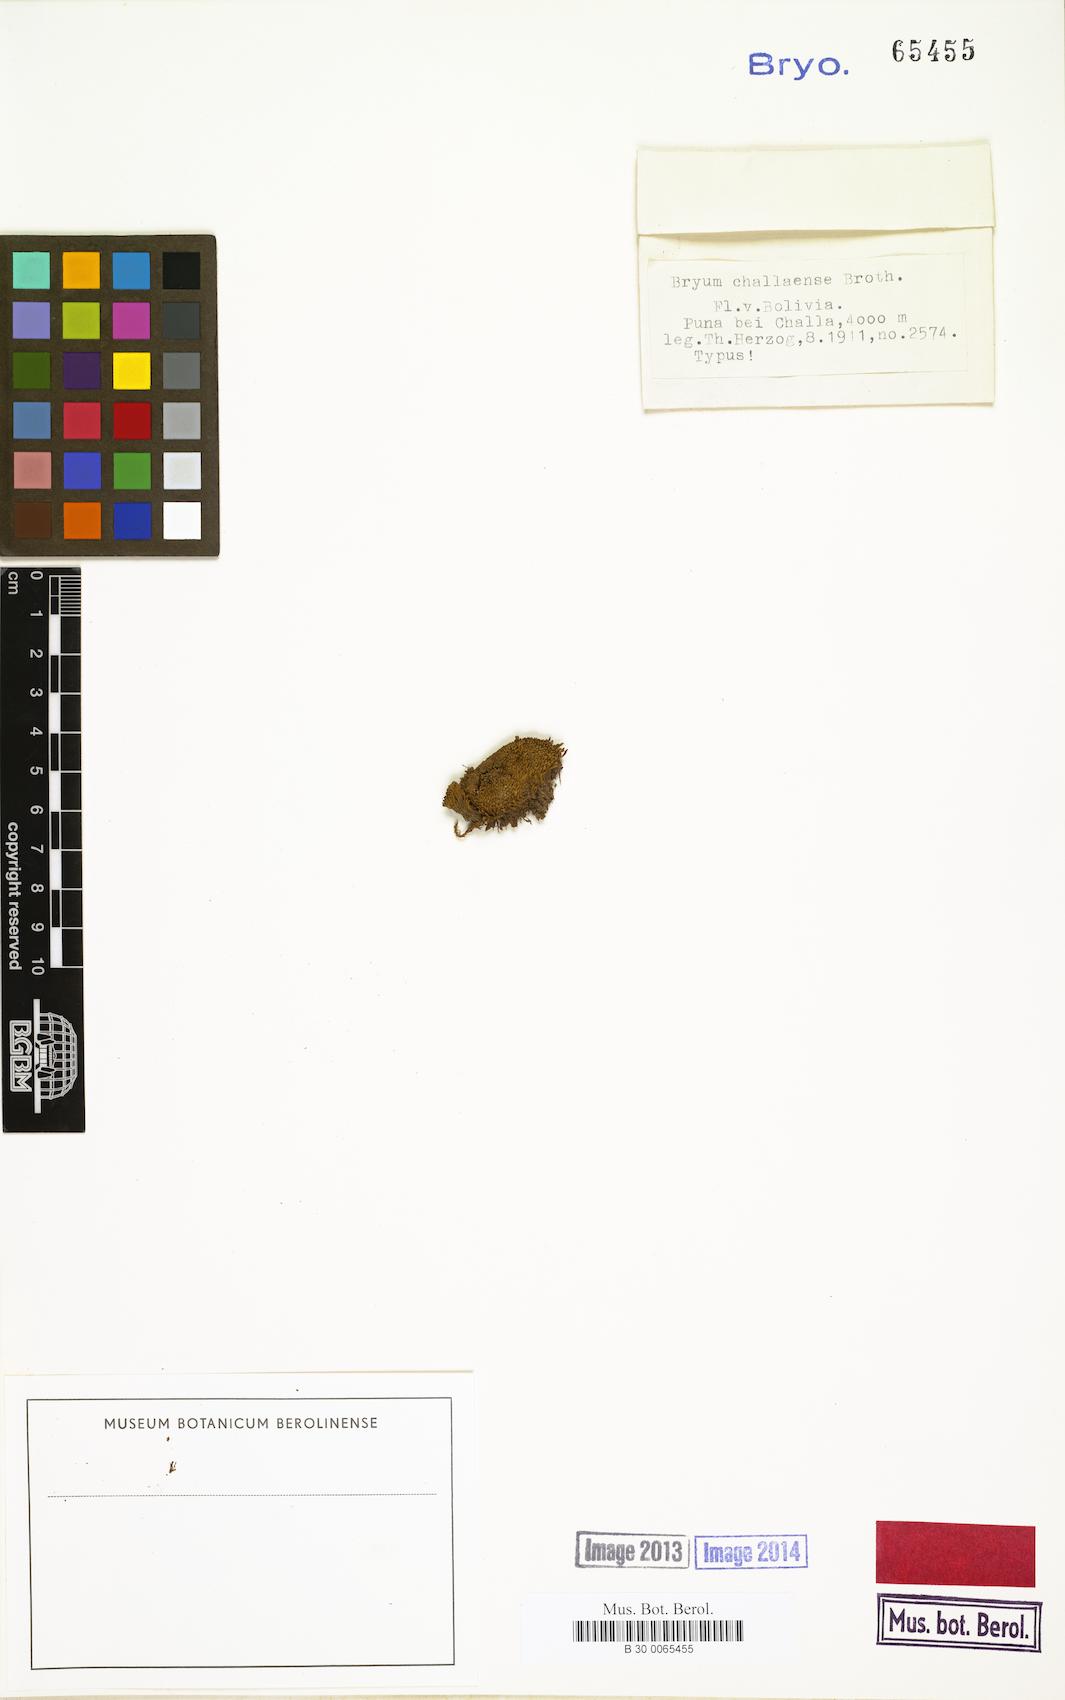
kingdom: Plantae
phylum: Bryophyta
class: Bryopsida
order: Bryales
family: Bryaceae
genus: Bryum
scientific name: Bryum challaense
